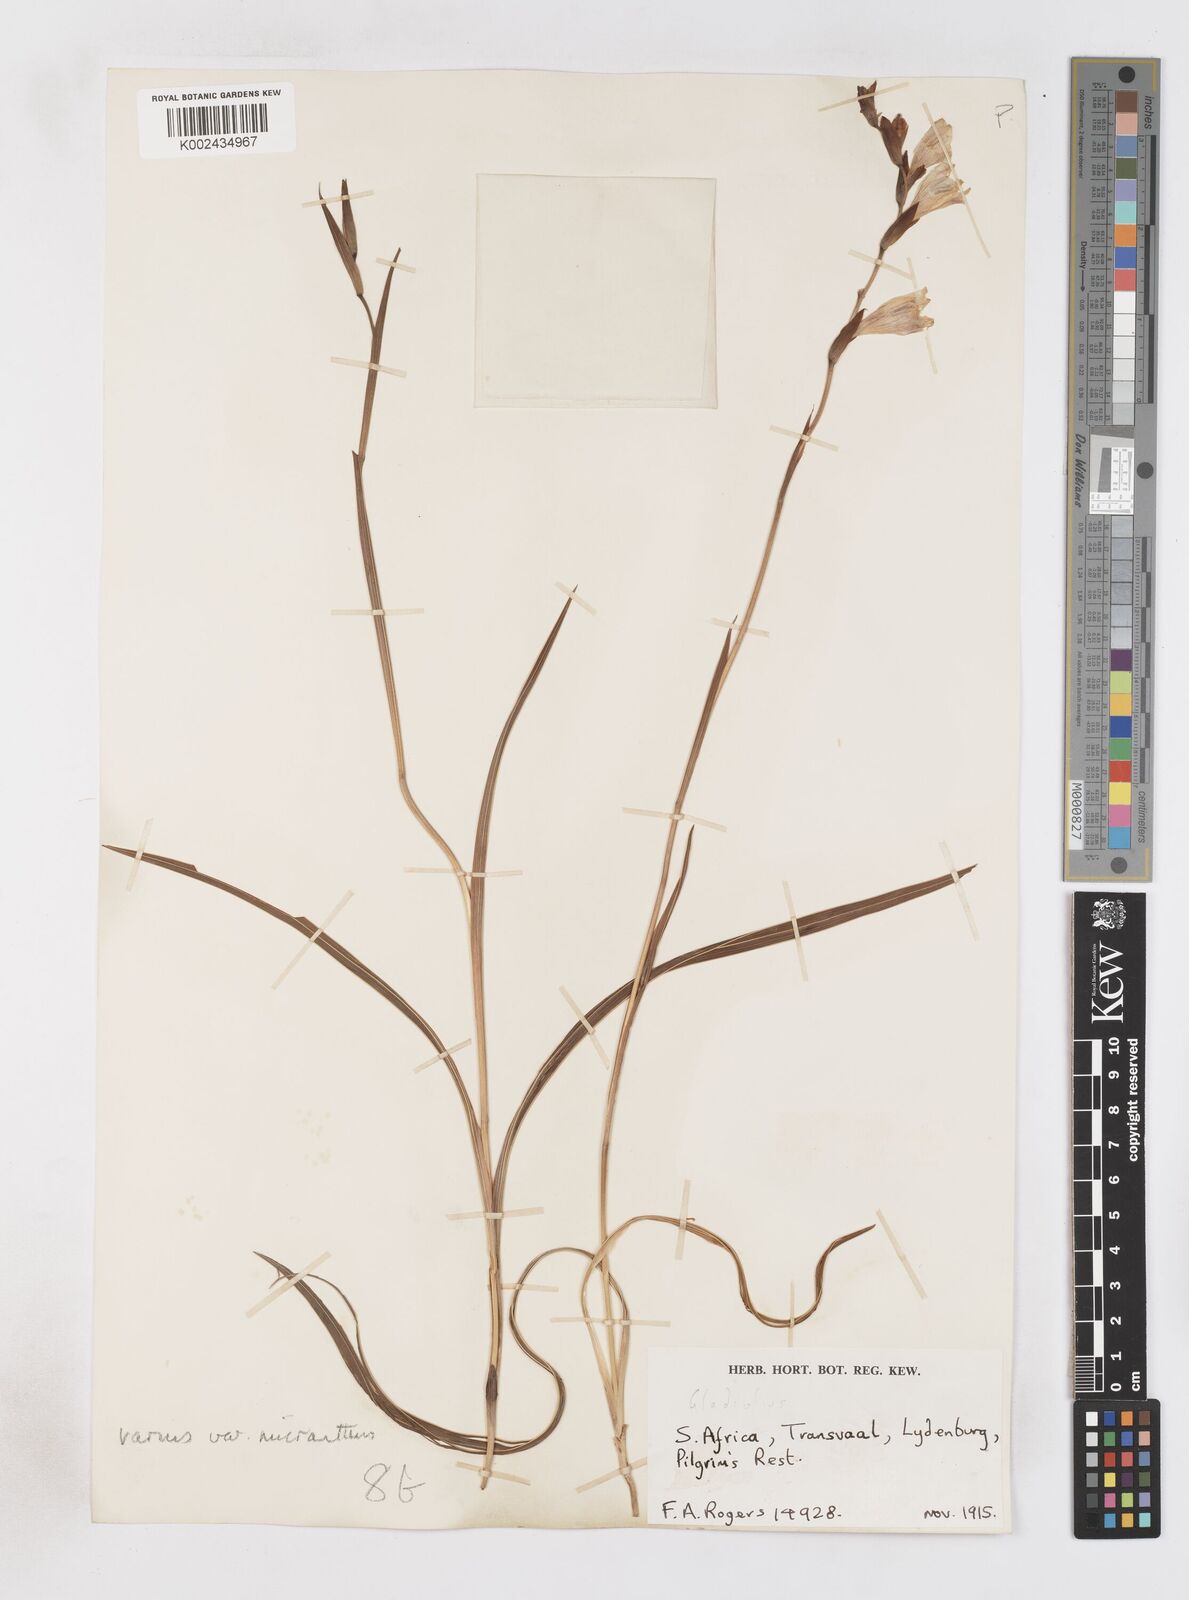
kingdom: Plantae
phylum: Tracheophyta
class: Liliopsida
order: Asparagales
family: Iridaceae
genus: Gladiolus
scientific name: Gladiolus ferrugineus
